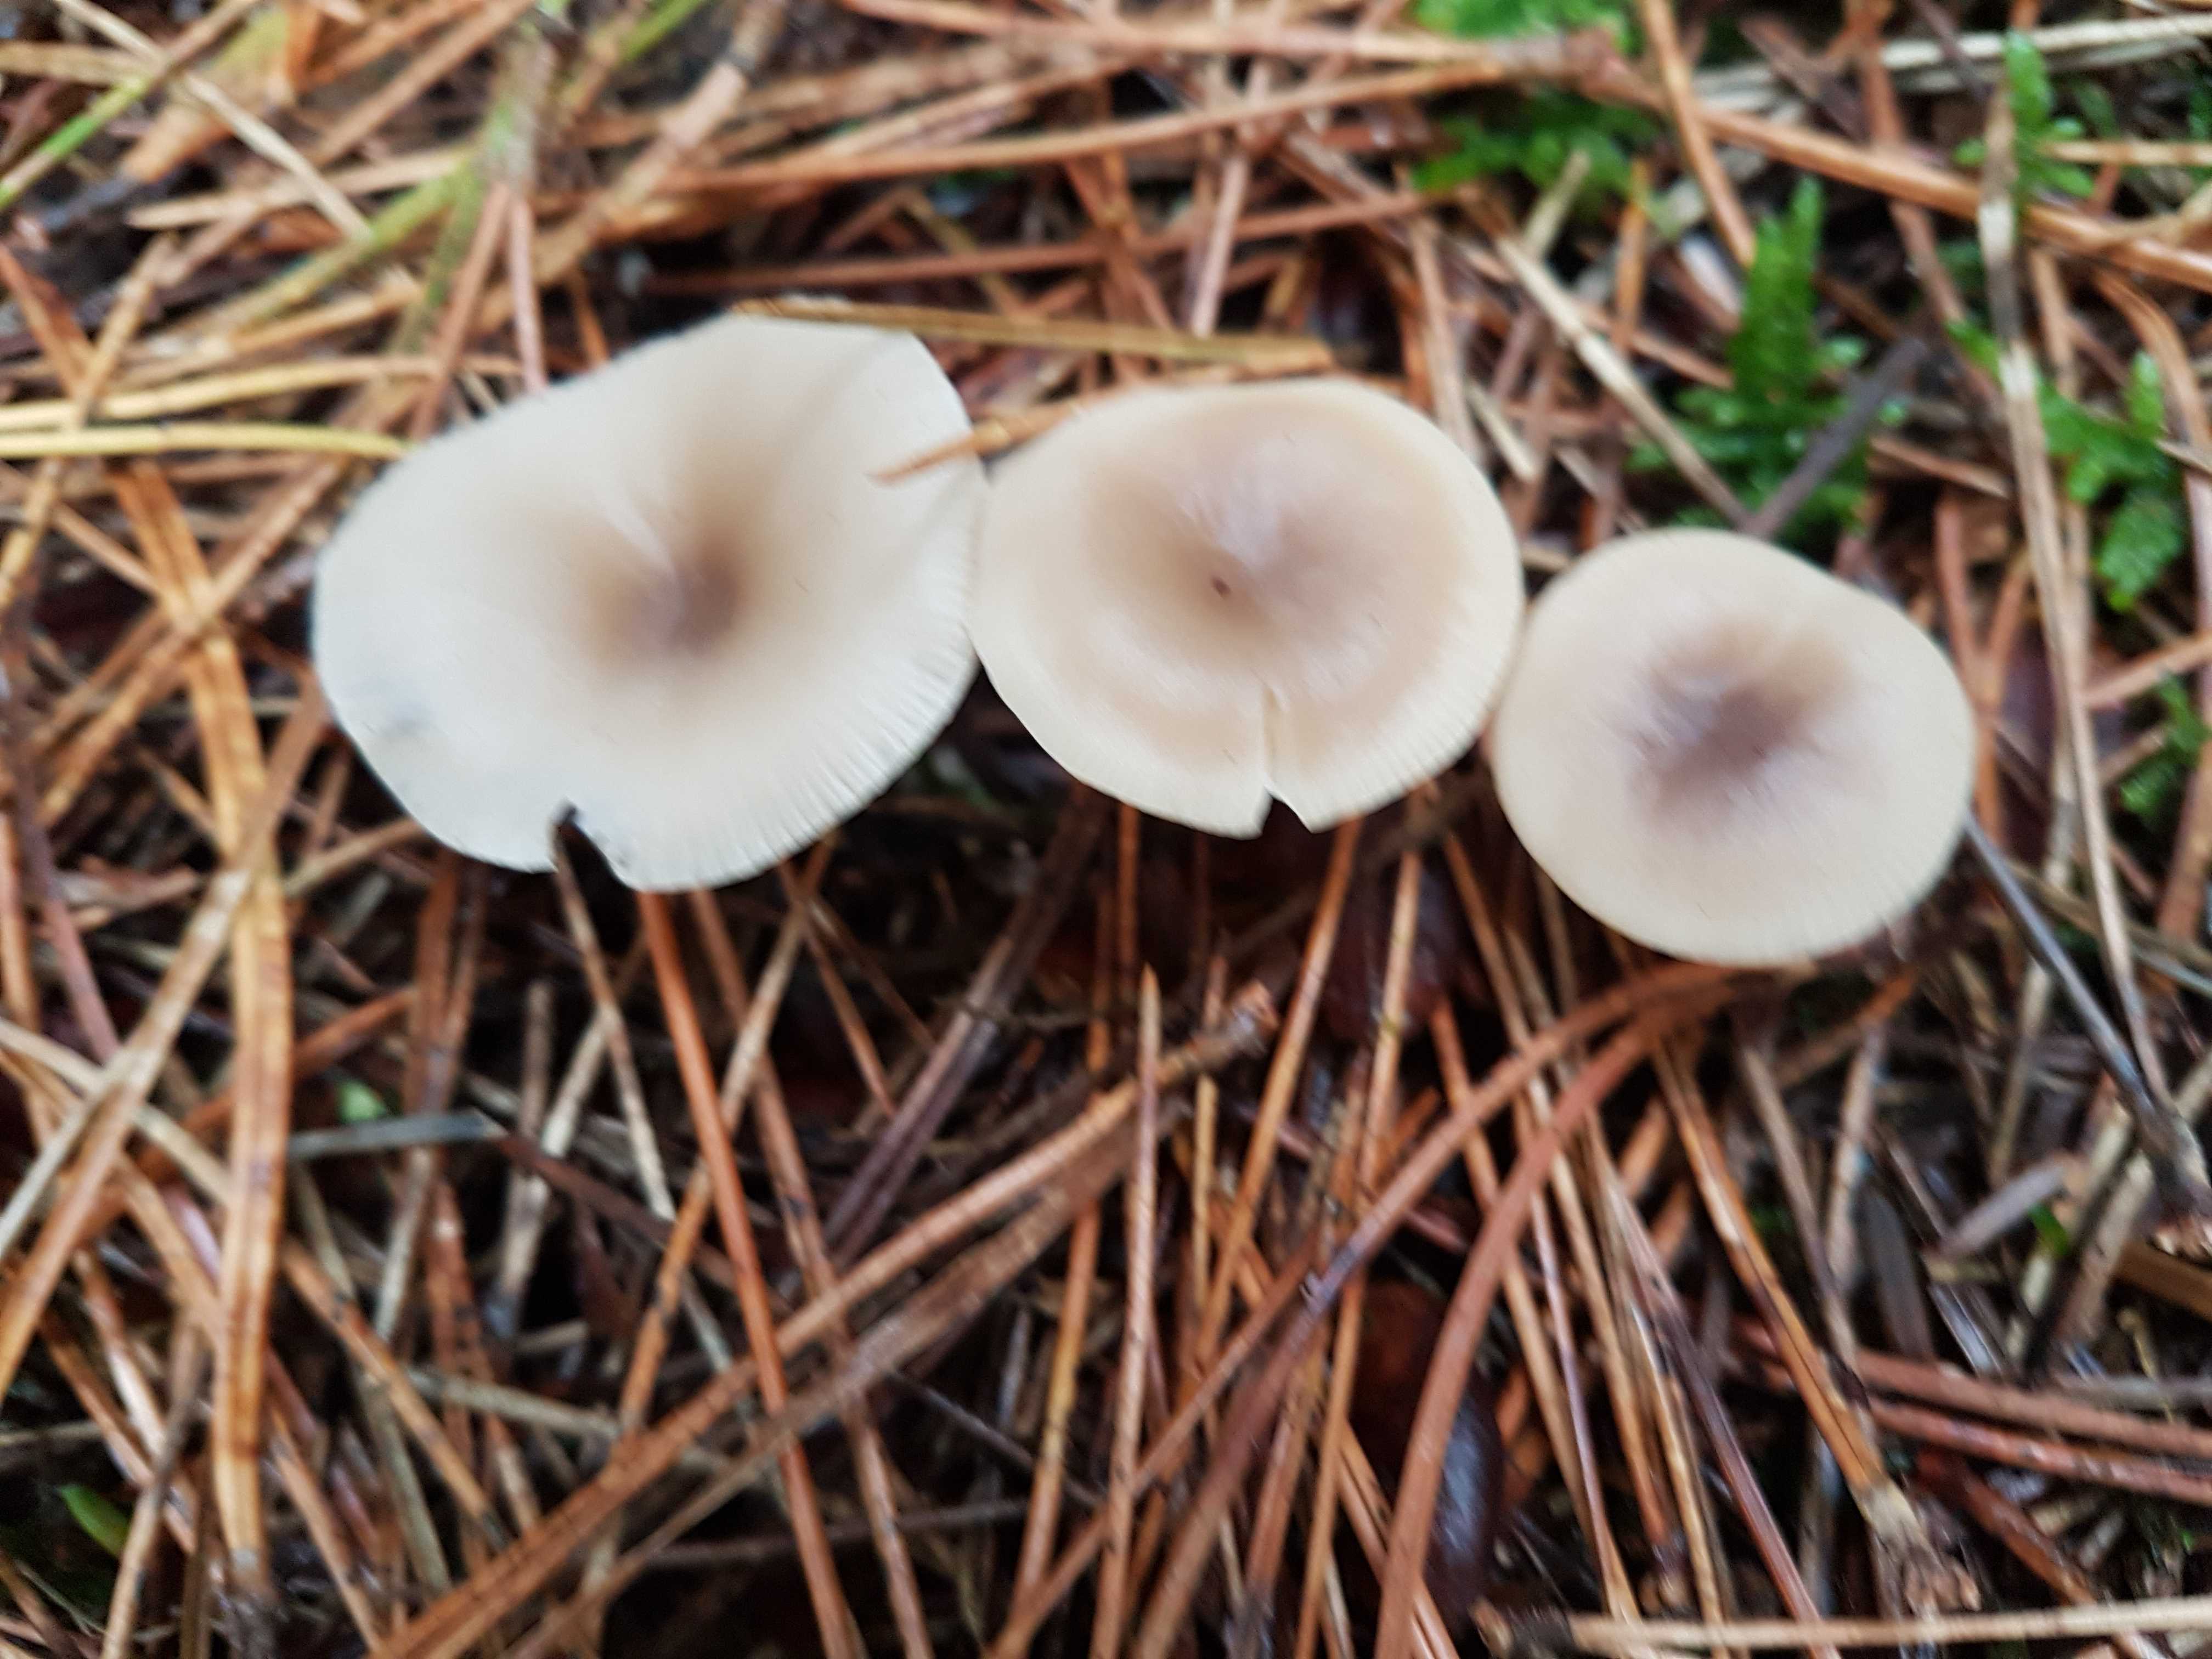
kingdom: Fungi
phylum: Basidiomycota
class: Agaricomycetes
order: Agaricales
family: Tricholomataceae
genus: Clitocybe
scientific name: Clitocybe
